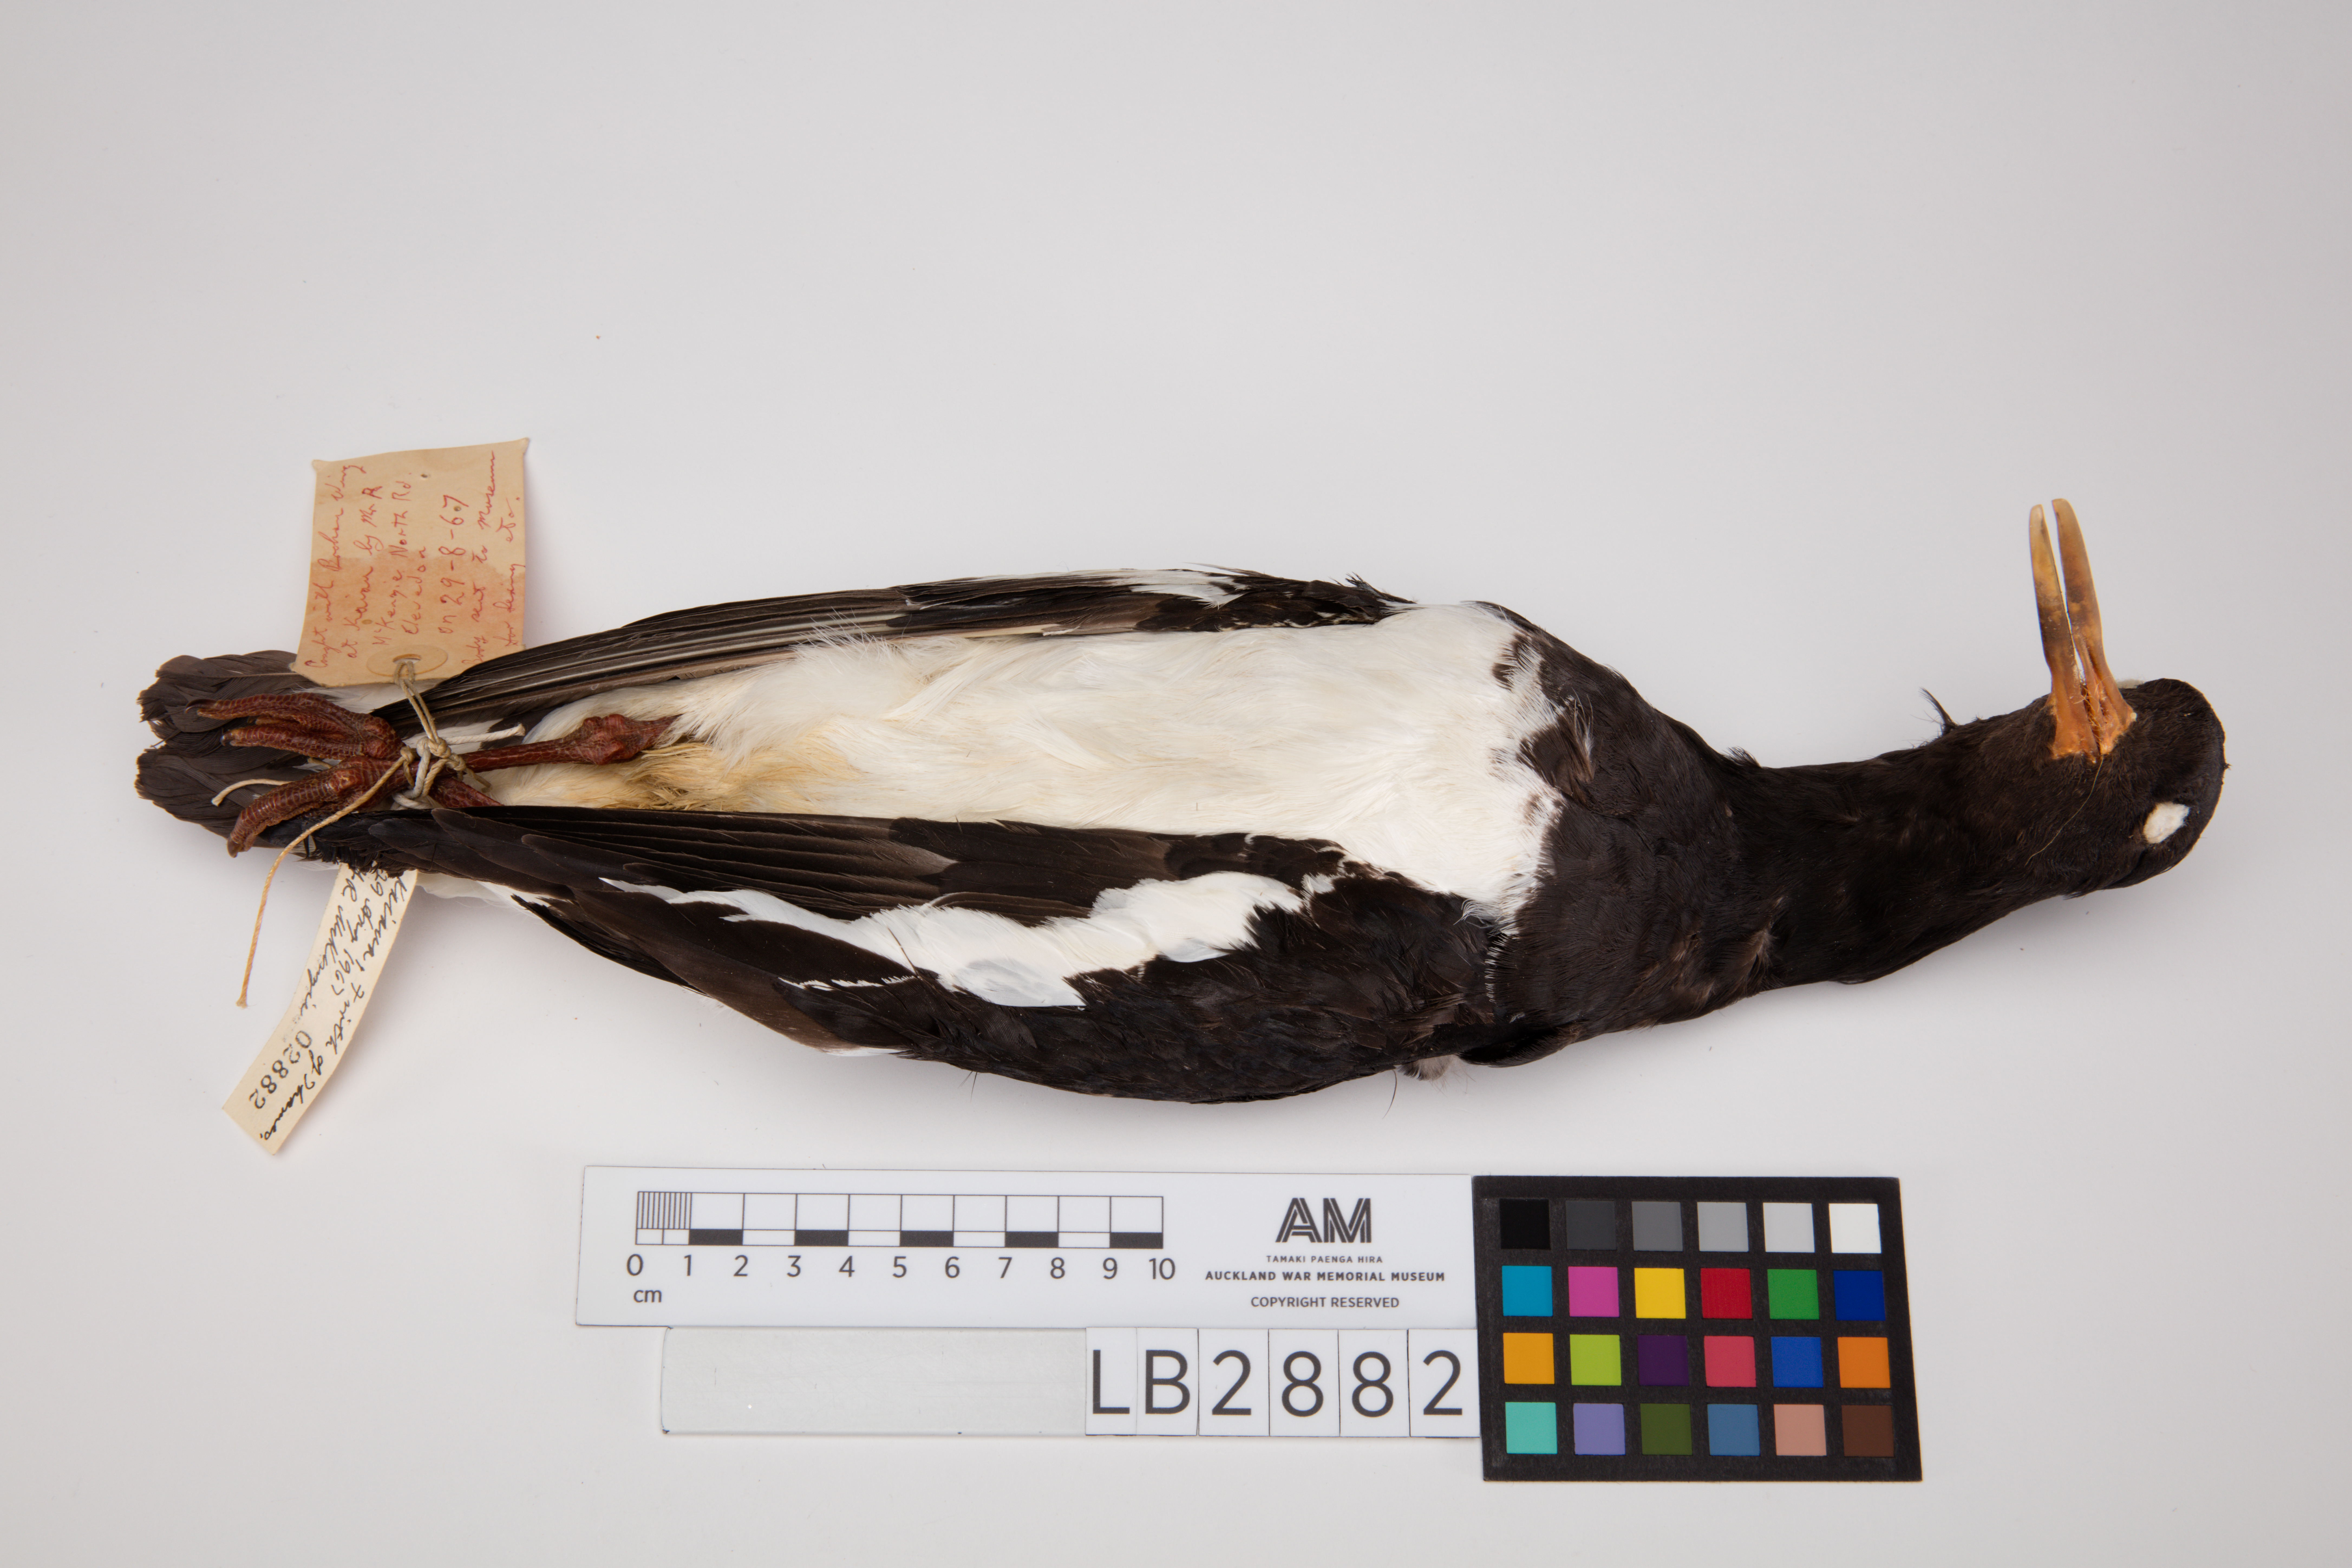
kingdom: Animalia
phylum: Chordata
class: Aves
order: Charadriiformes
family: Haematopodidae
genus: Haematopus
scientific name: Haematopus finschi
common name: South island oystercatcher
